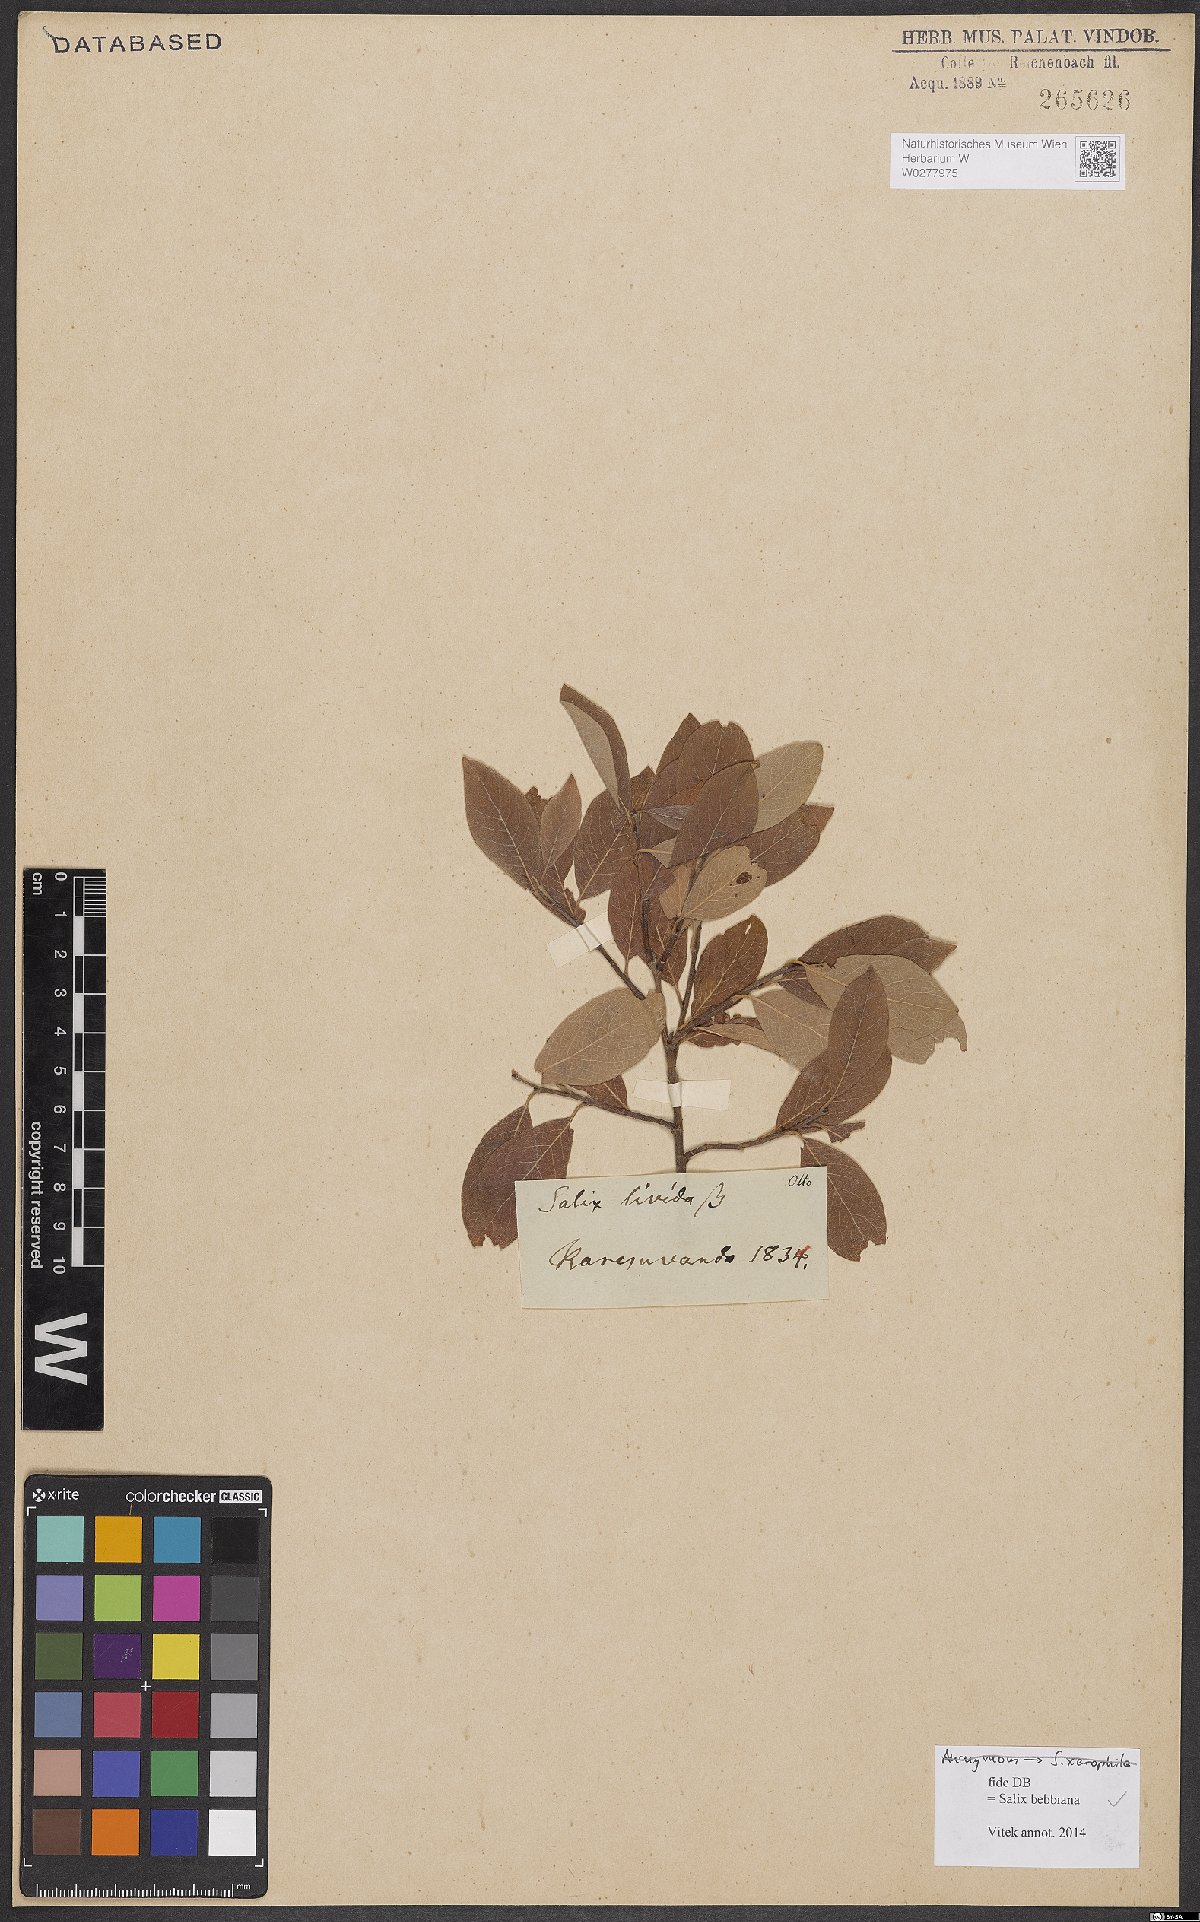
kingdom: Plantae
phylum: Tracheophyta
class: Magnoliopsida
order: Malpighiales
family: Salicaceae
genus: Salix
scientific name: Salix bebbiana
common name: Bebb's willow
